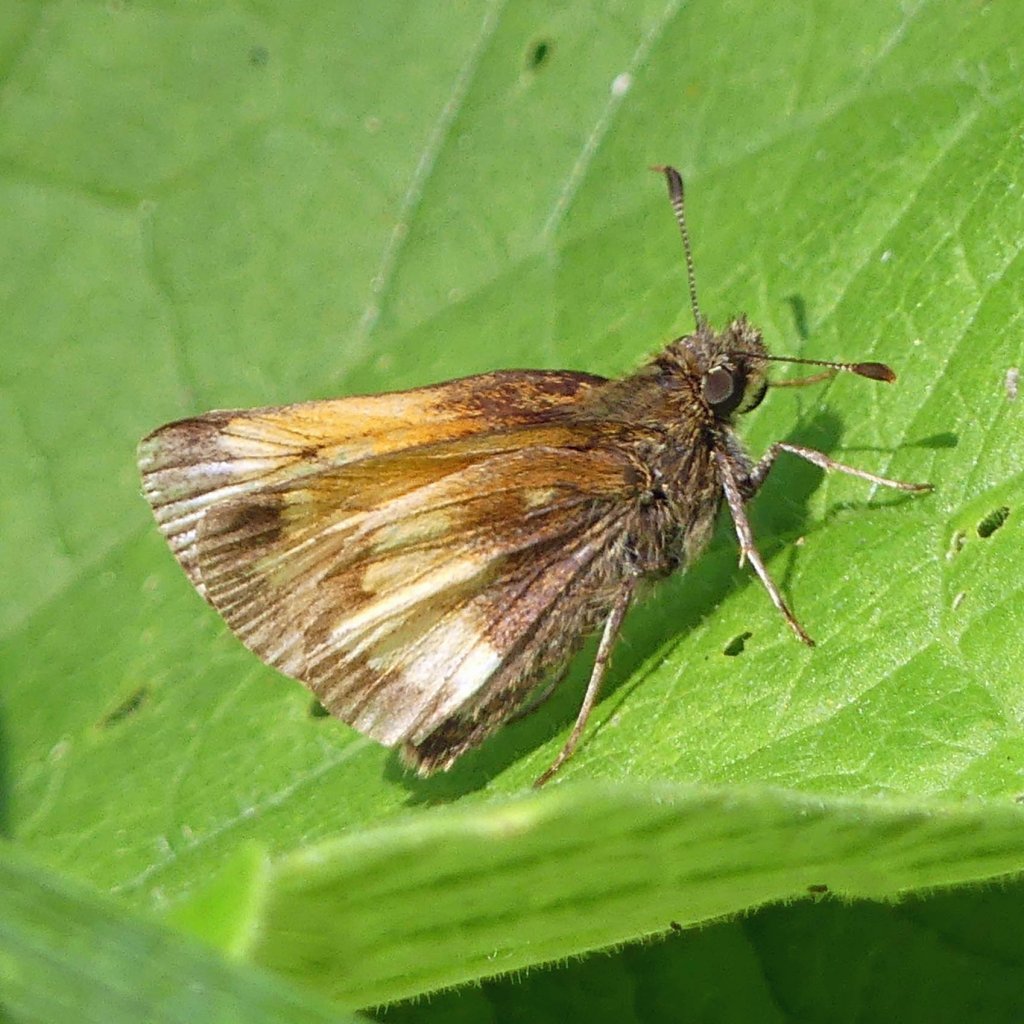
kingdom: Animalia
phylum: Arthropoda
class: Insecta
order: Lepidoptera
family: Hesperiidae
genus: Lon
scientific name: Lon hobomok
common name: Hobomok Skipper
